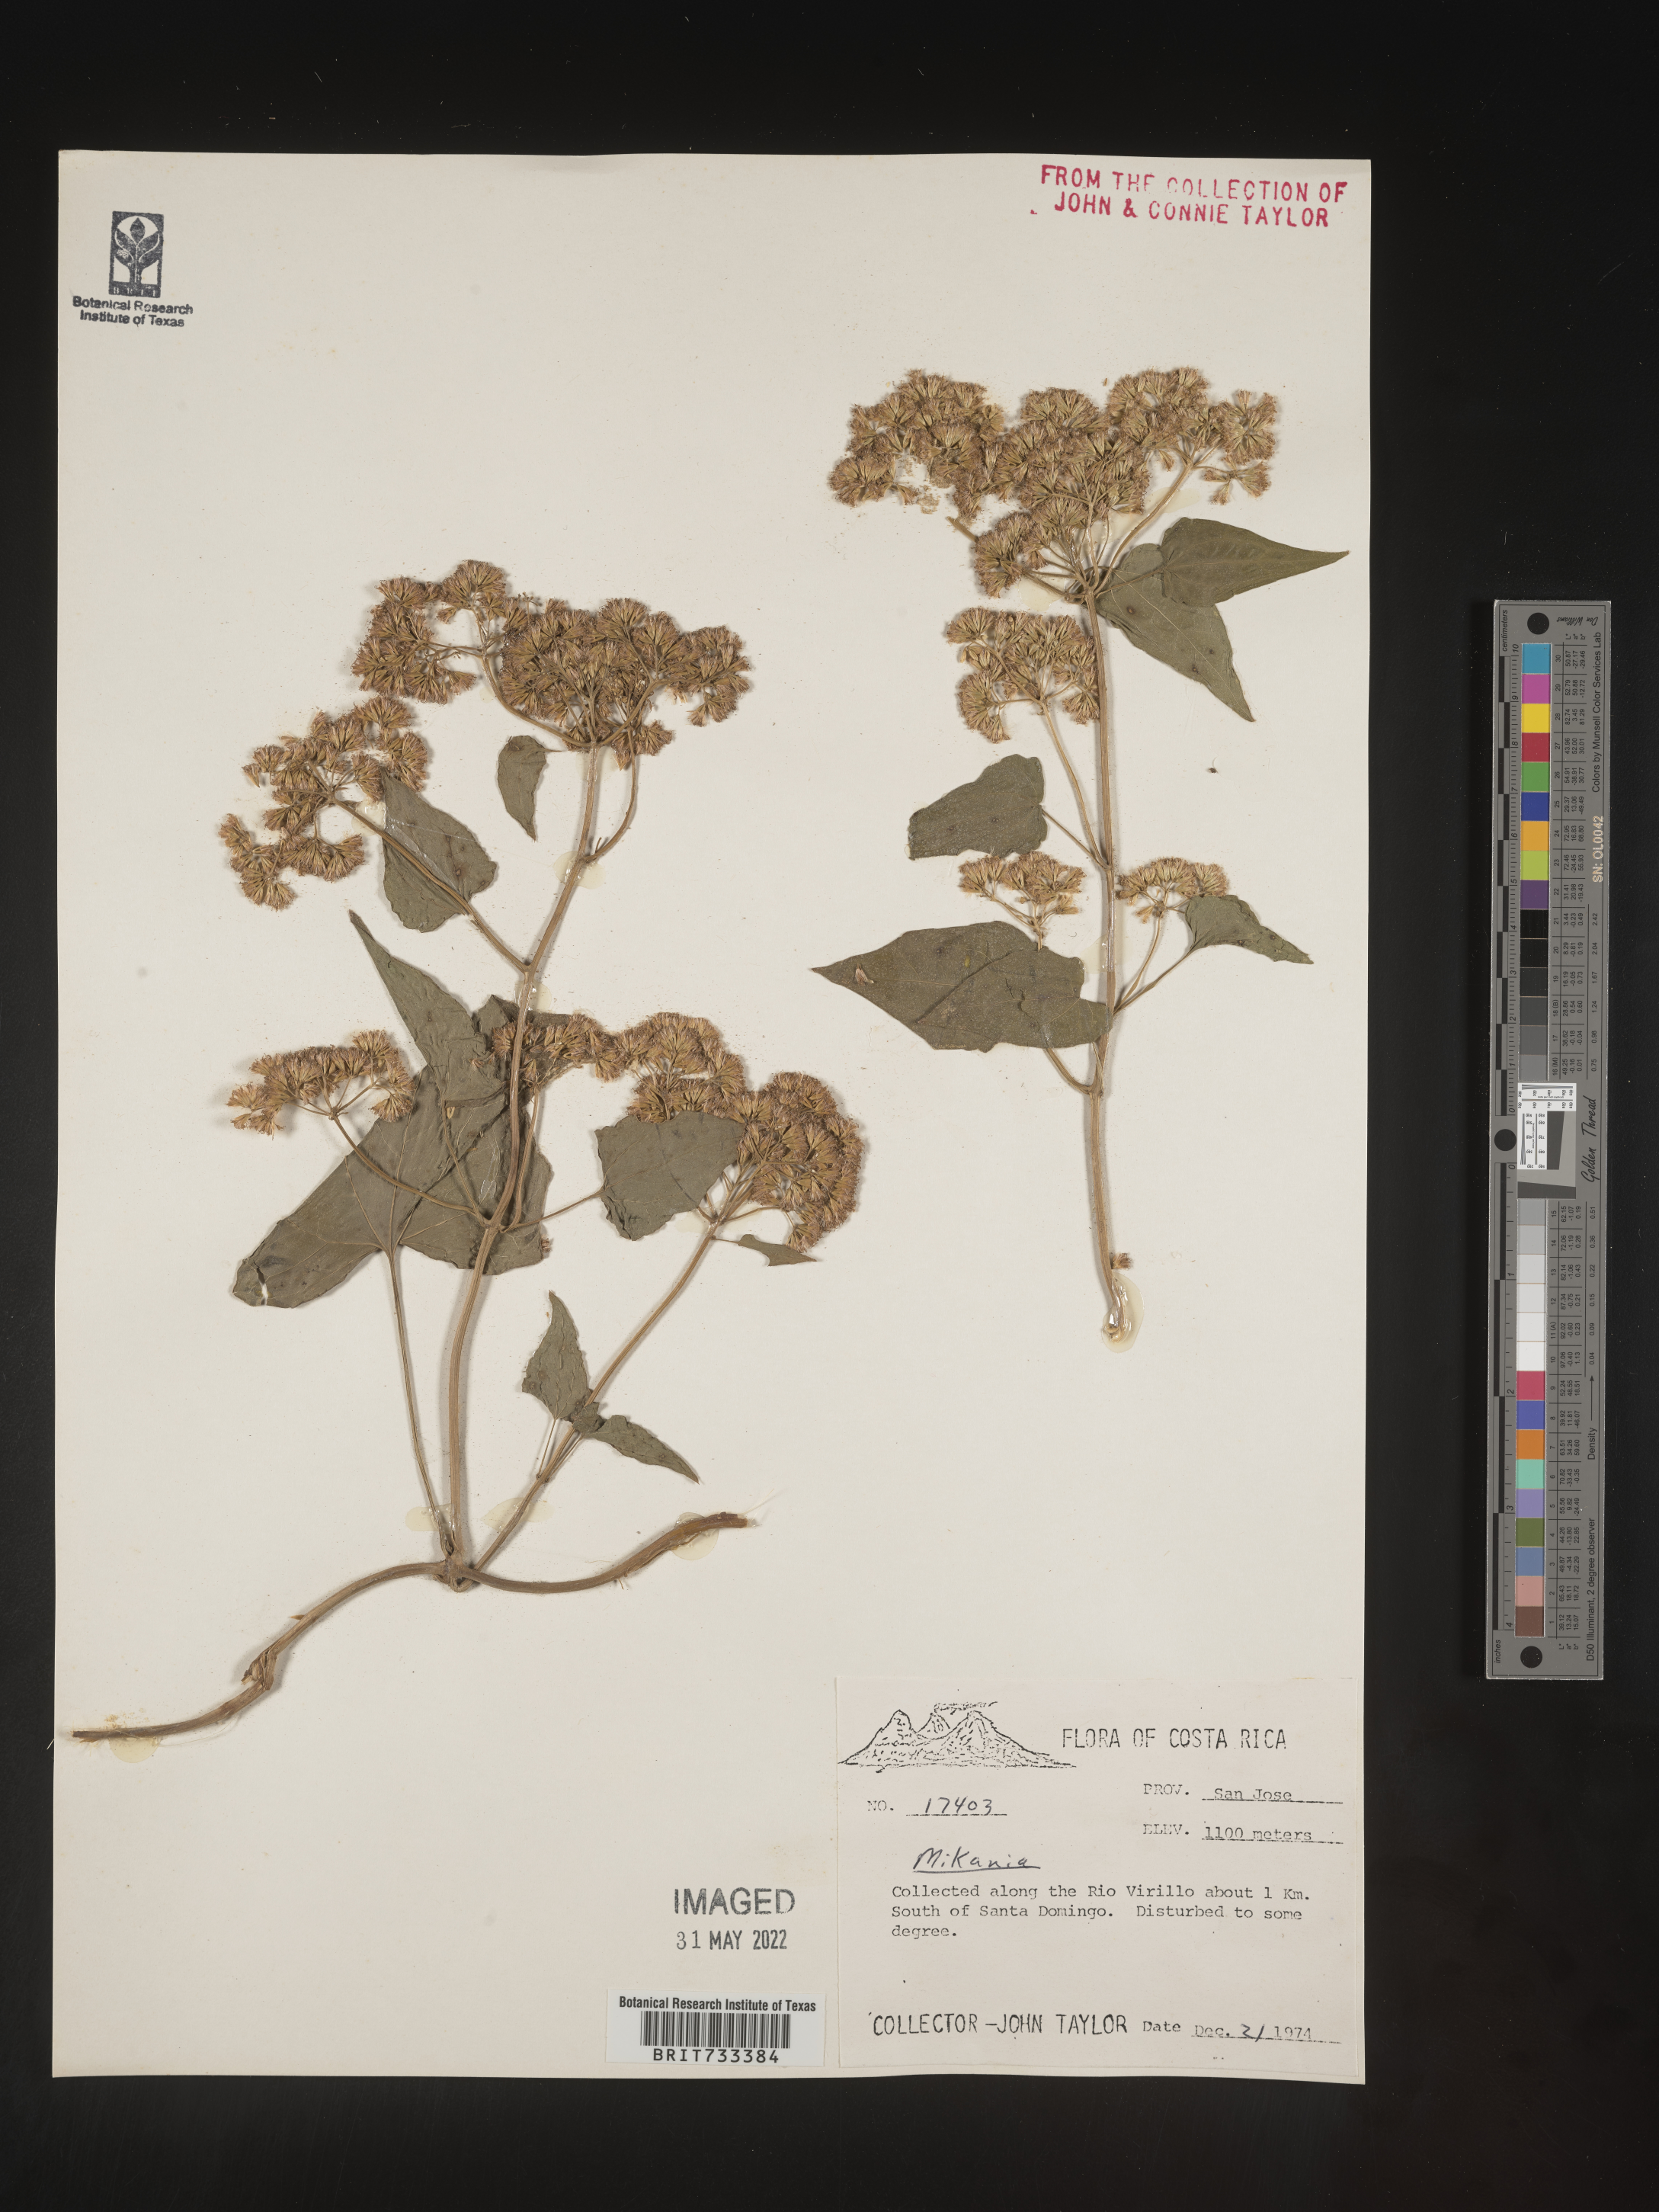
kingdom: Plantae
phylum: Tracheophyta
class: Magnoliopsida
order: Asterales
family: Asteraceae
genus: Mikania
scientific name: Mikania
